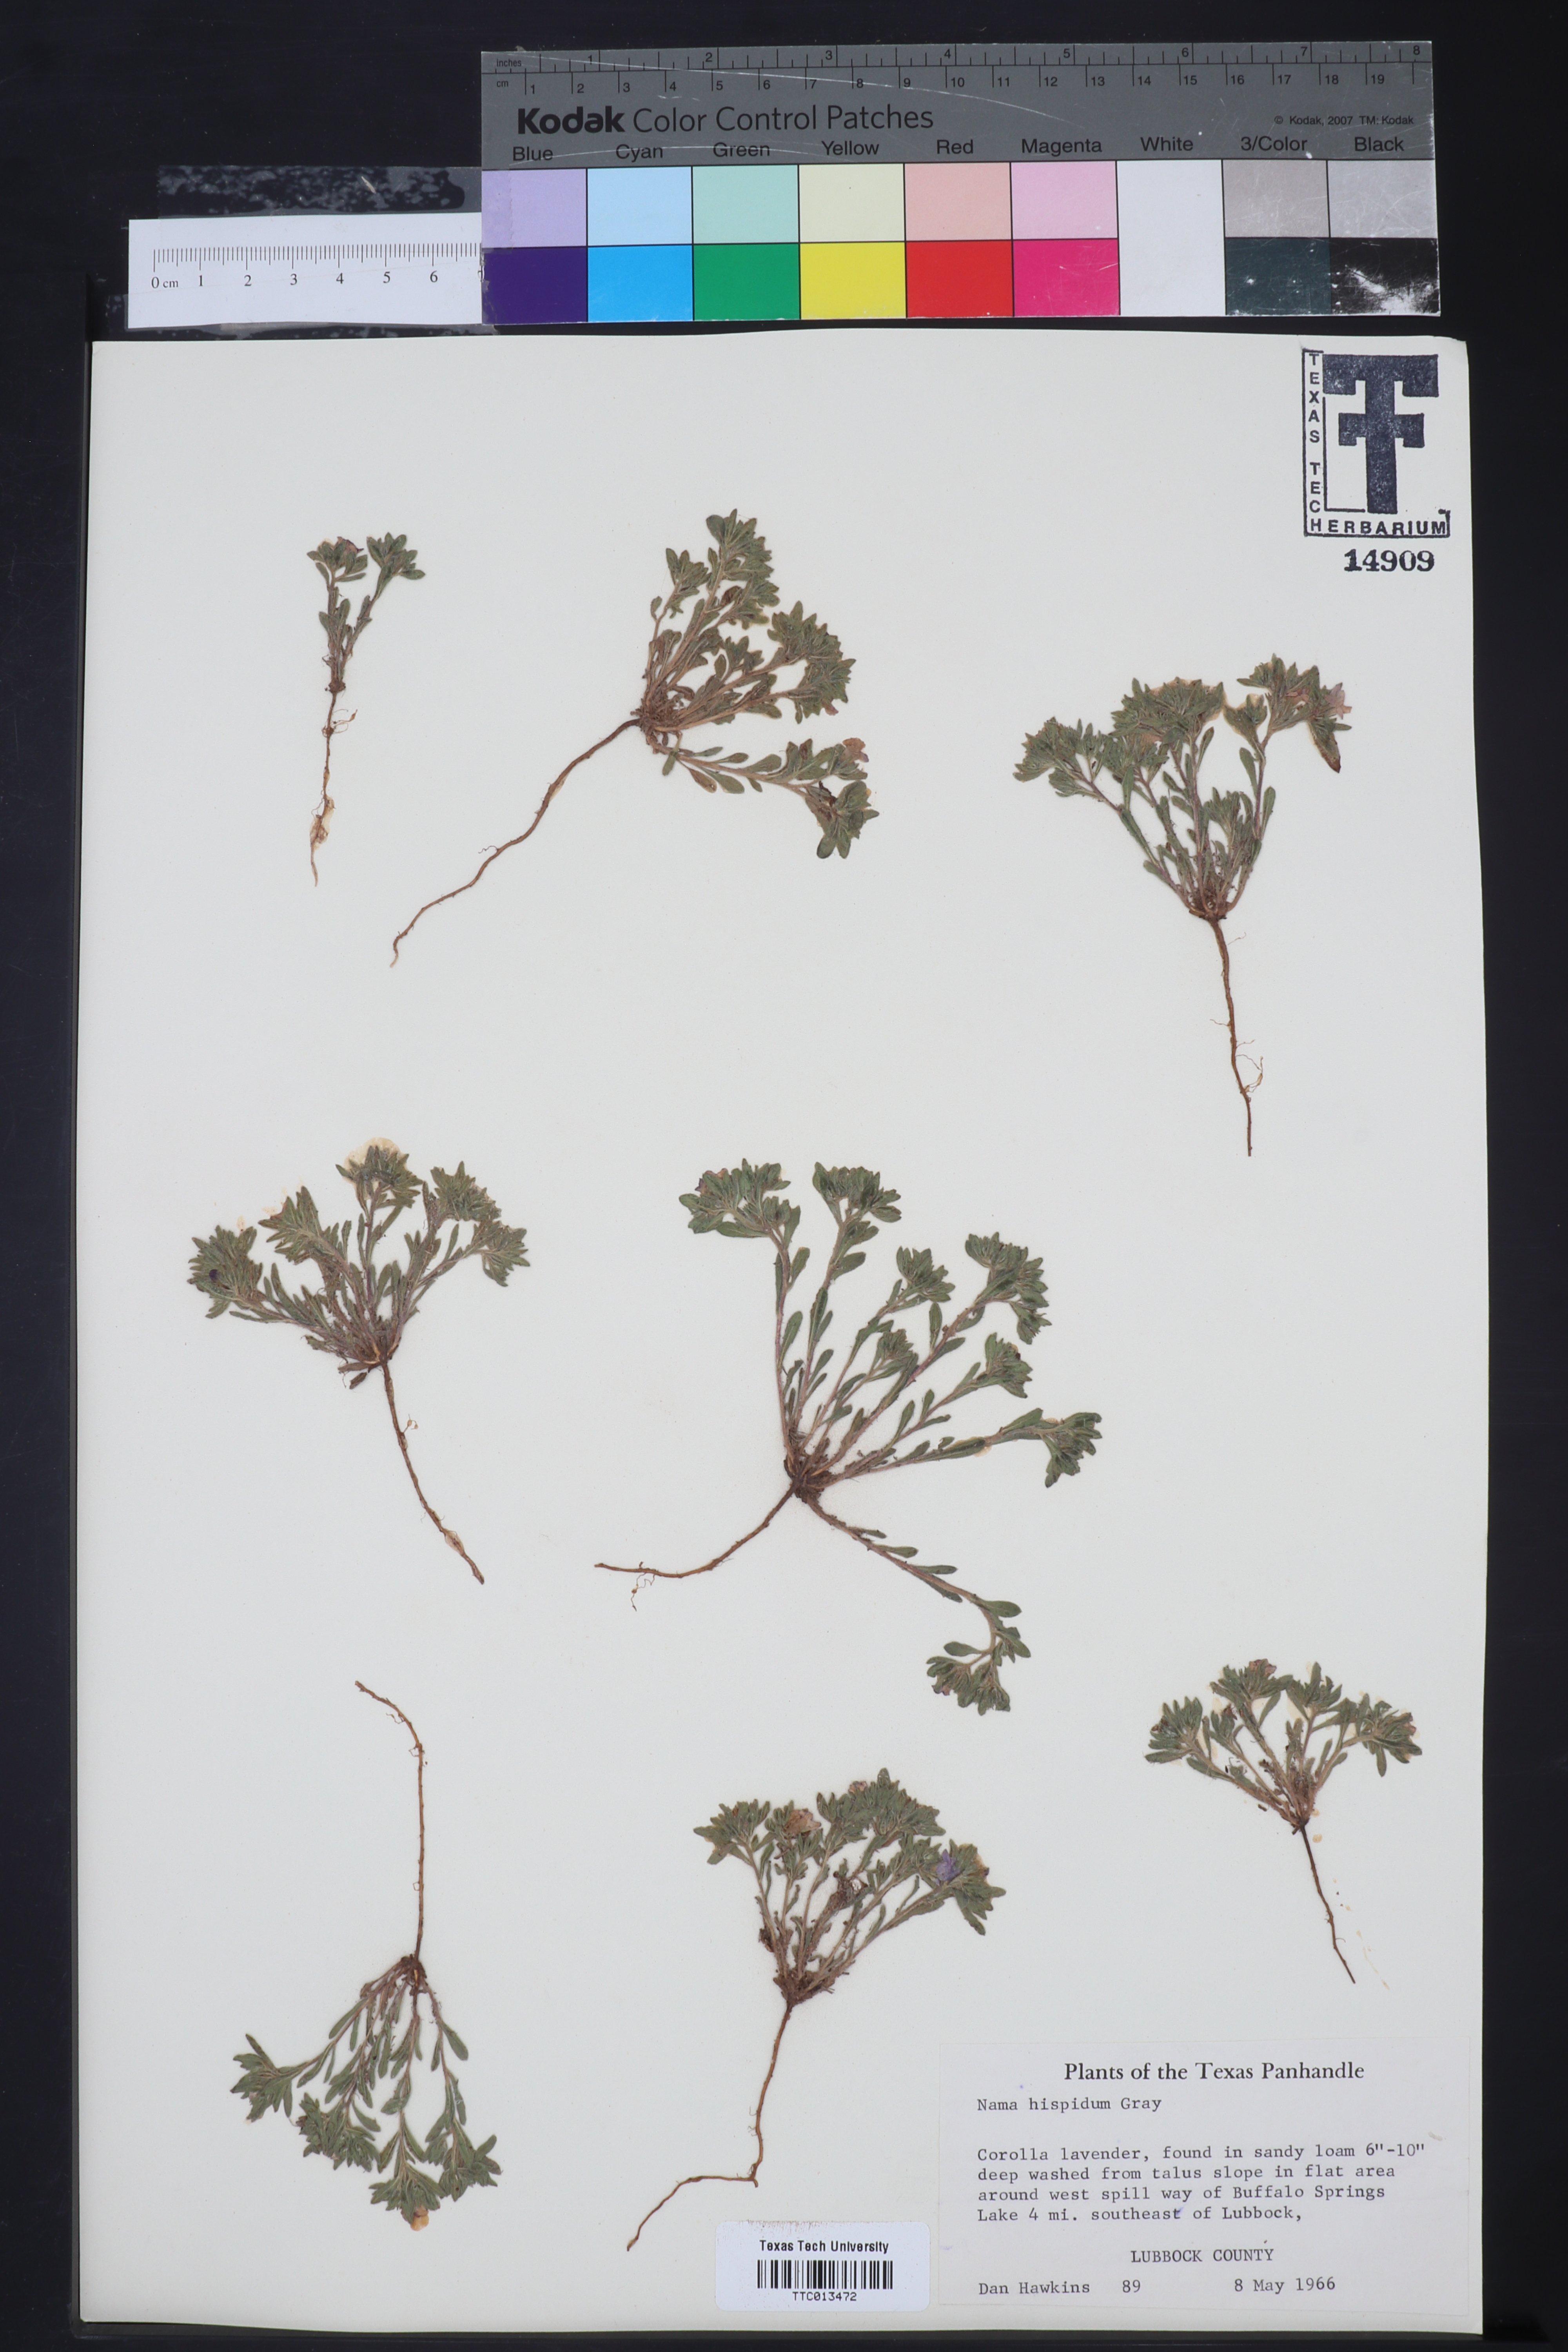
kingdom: Plantae
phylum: Tracheophyta
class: Magnoliopsida
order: Boraginales
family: Namaceae
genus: Nama
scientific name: Nama hispida
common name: Bristly nama
